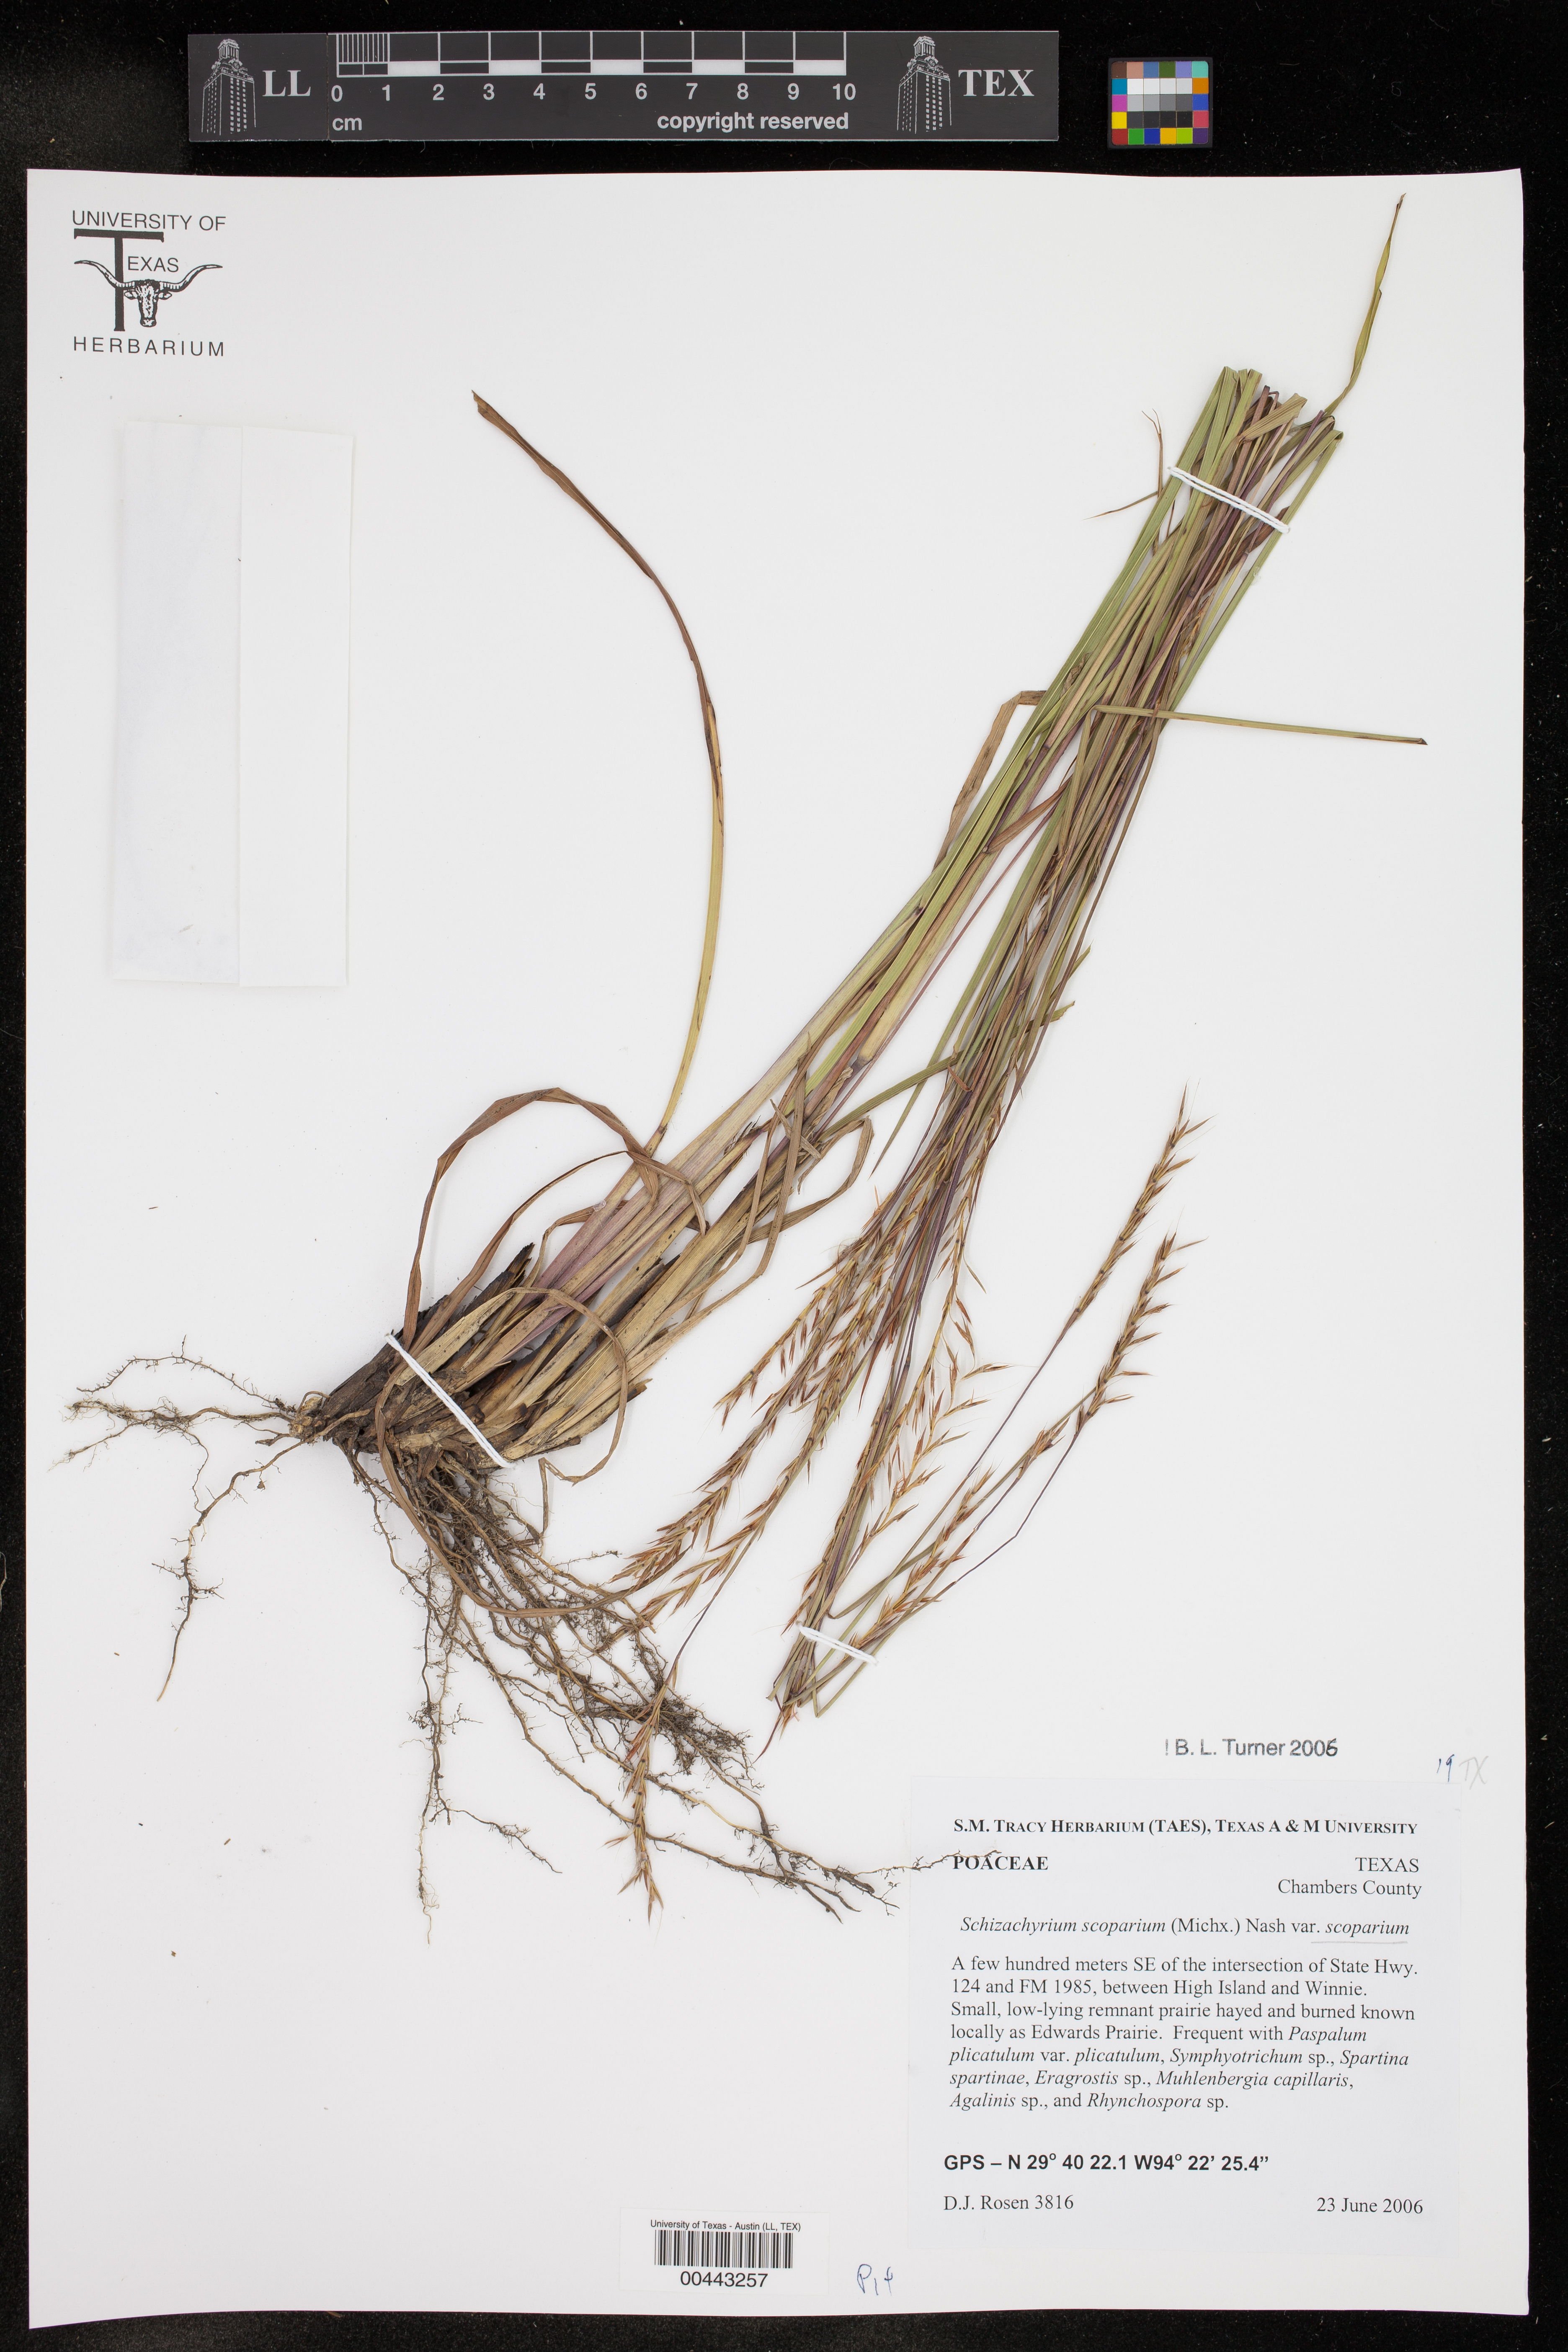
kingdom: Plantae
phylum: Tracheophyta
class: Liliopsida
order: Poales
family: Poaceae
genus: Schizachyrium
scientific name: Schizachyrium scoparium
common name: Little bluestem
